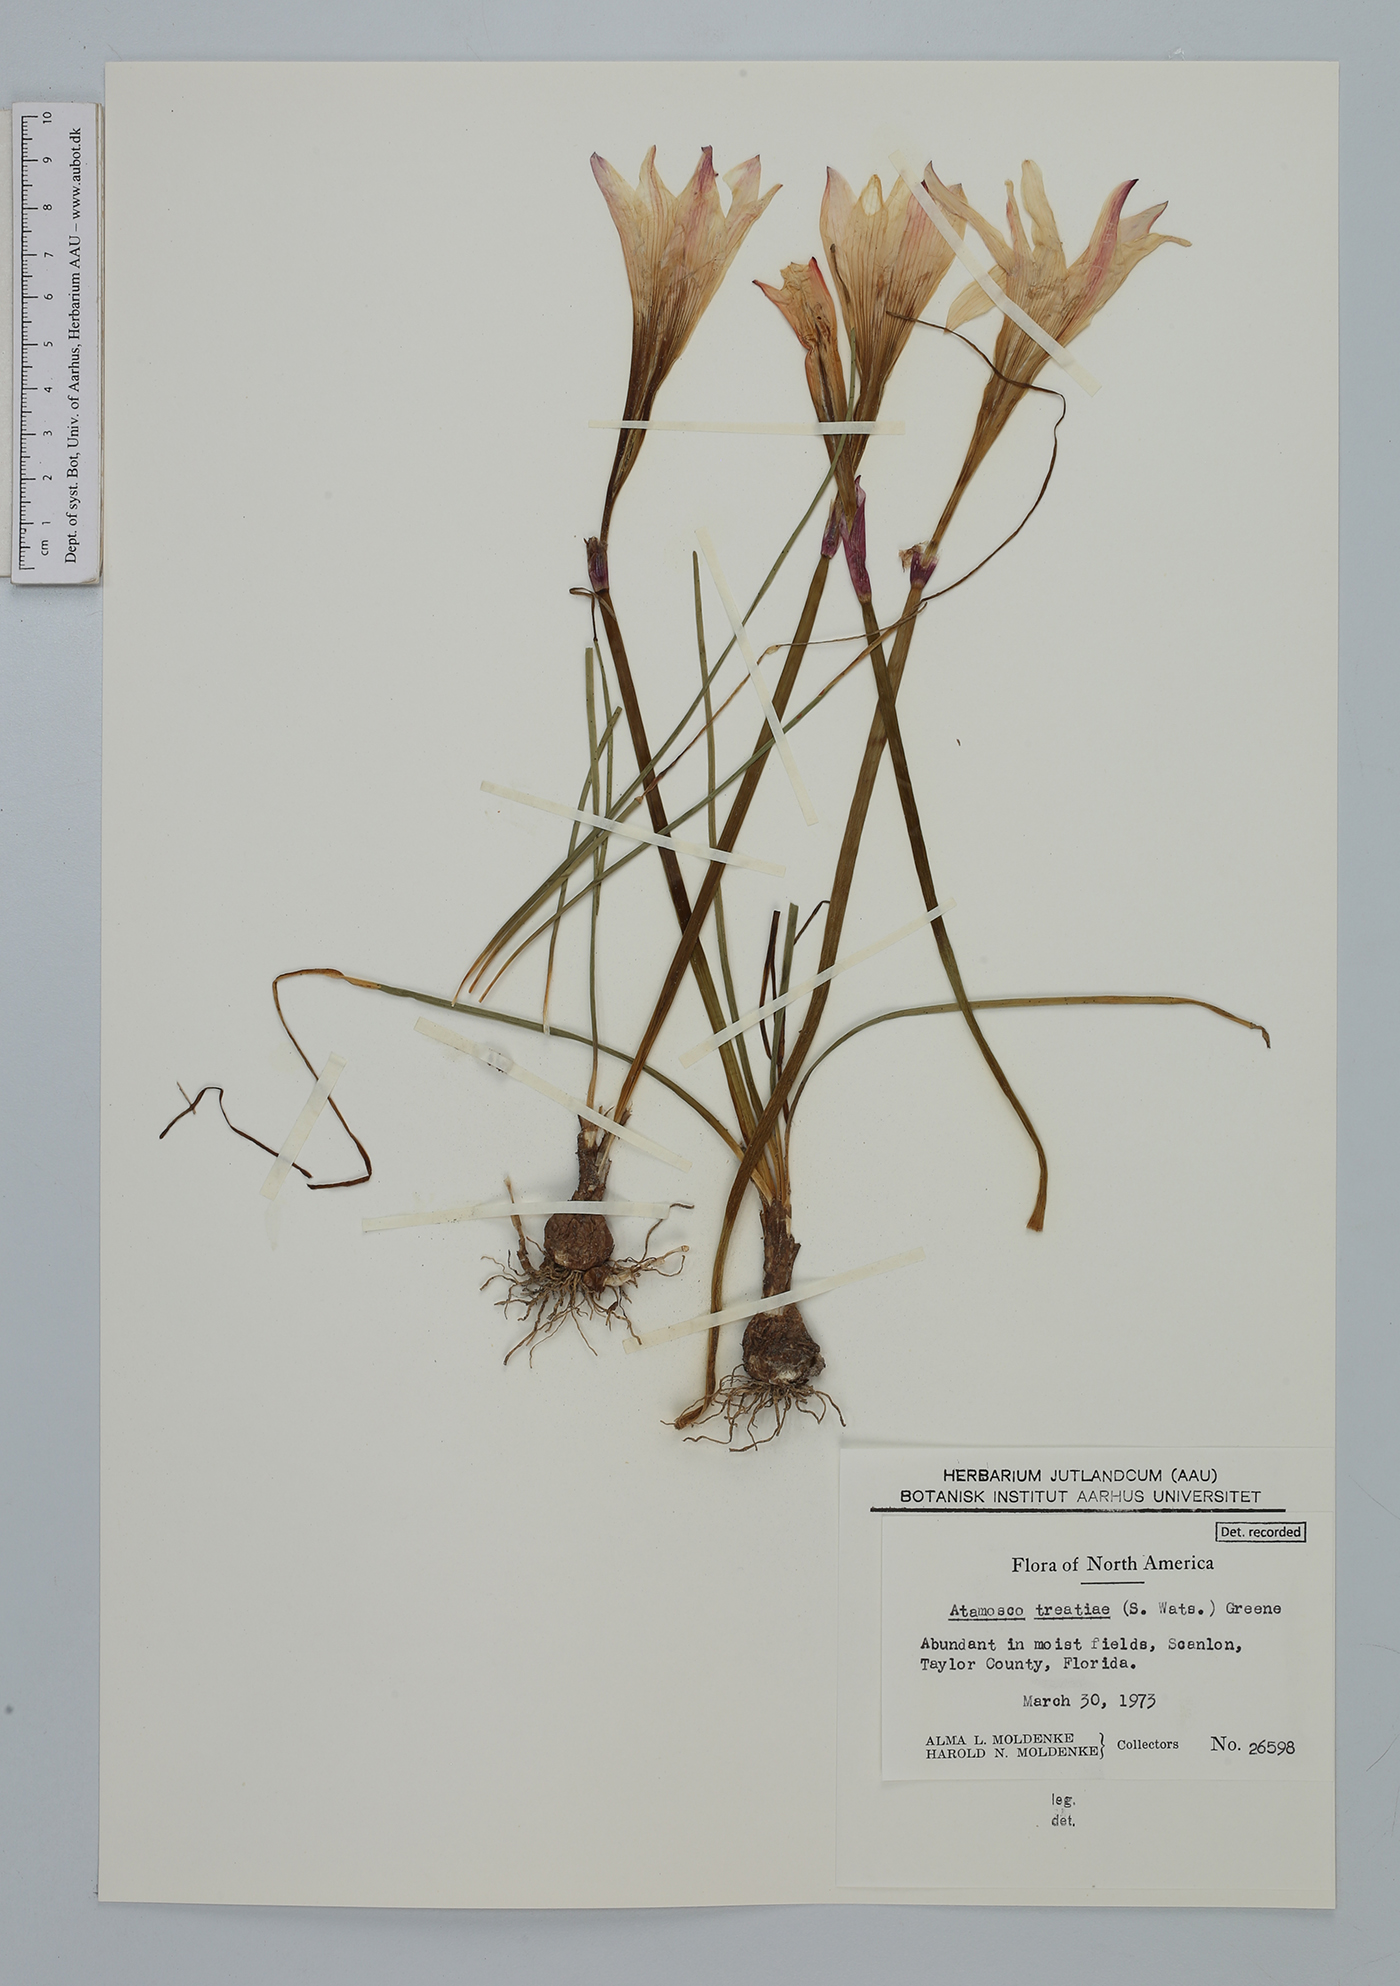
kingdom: Plantae
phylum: Tracheophyta
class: Liliopsida
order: Asparagales
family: Amaryllidaceae
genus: Zephyranthes
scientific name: Zephyranthes treatiae
